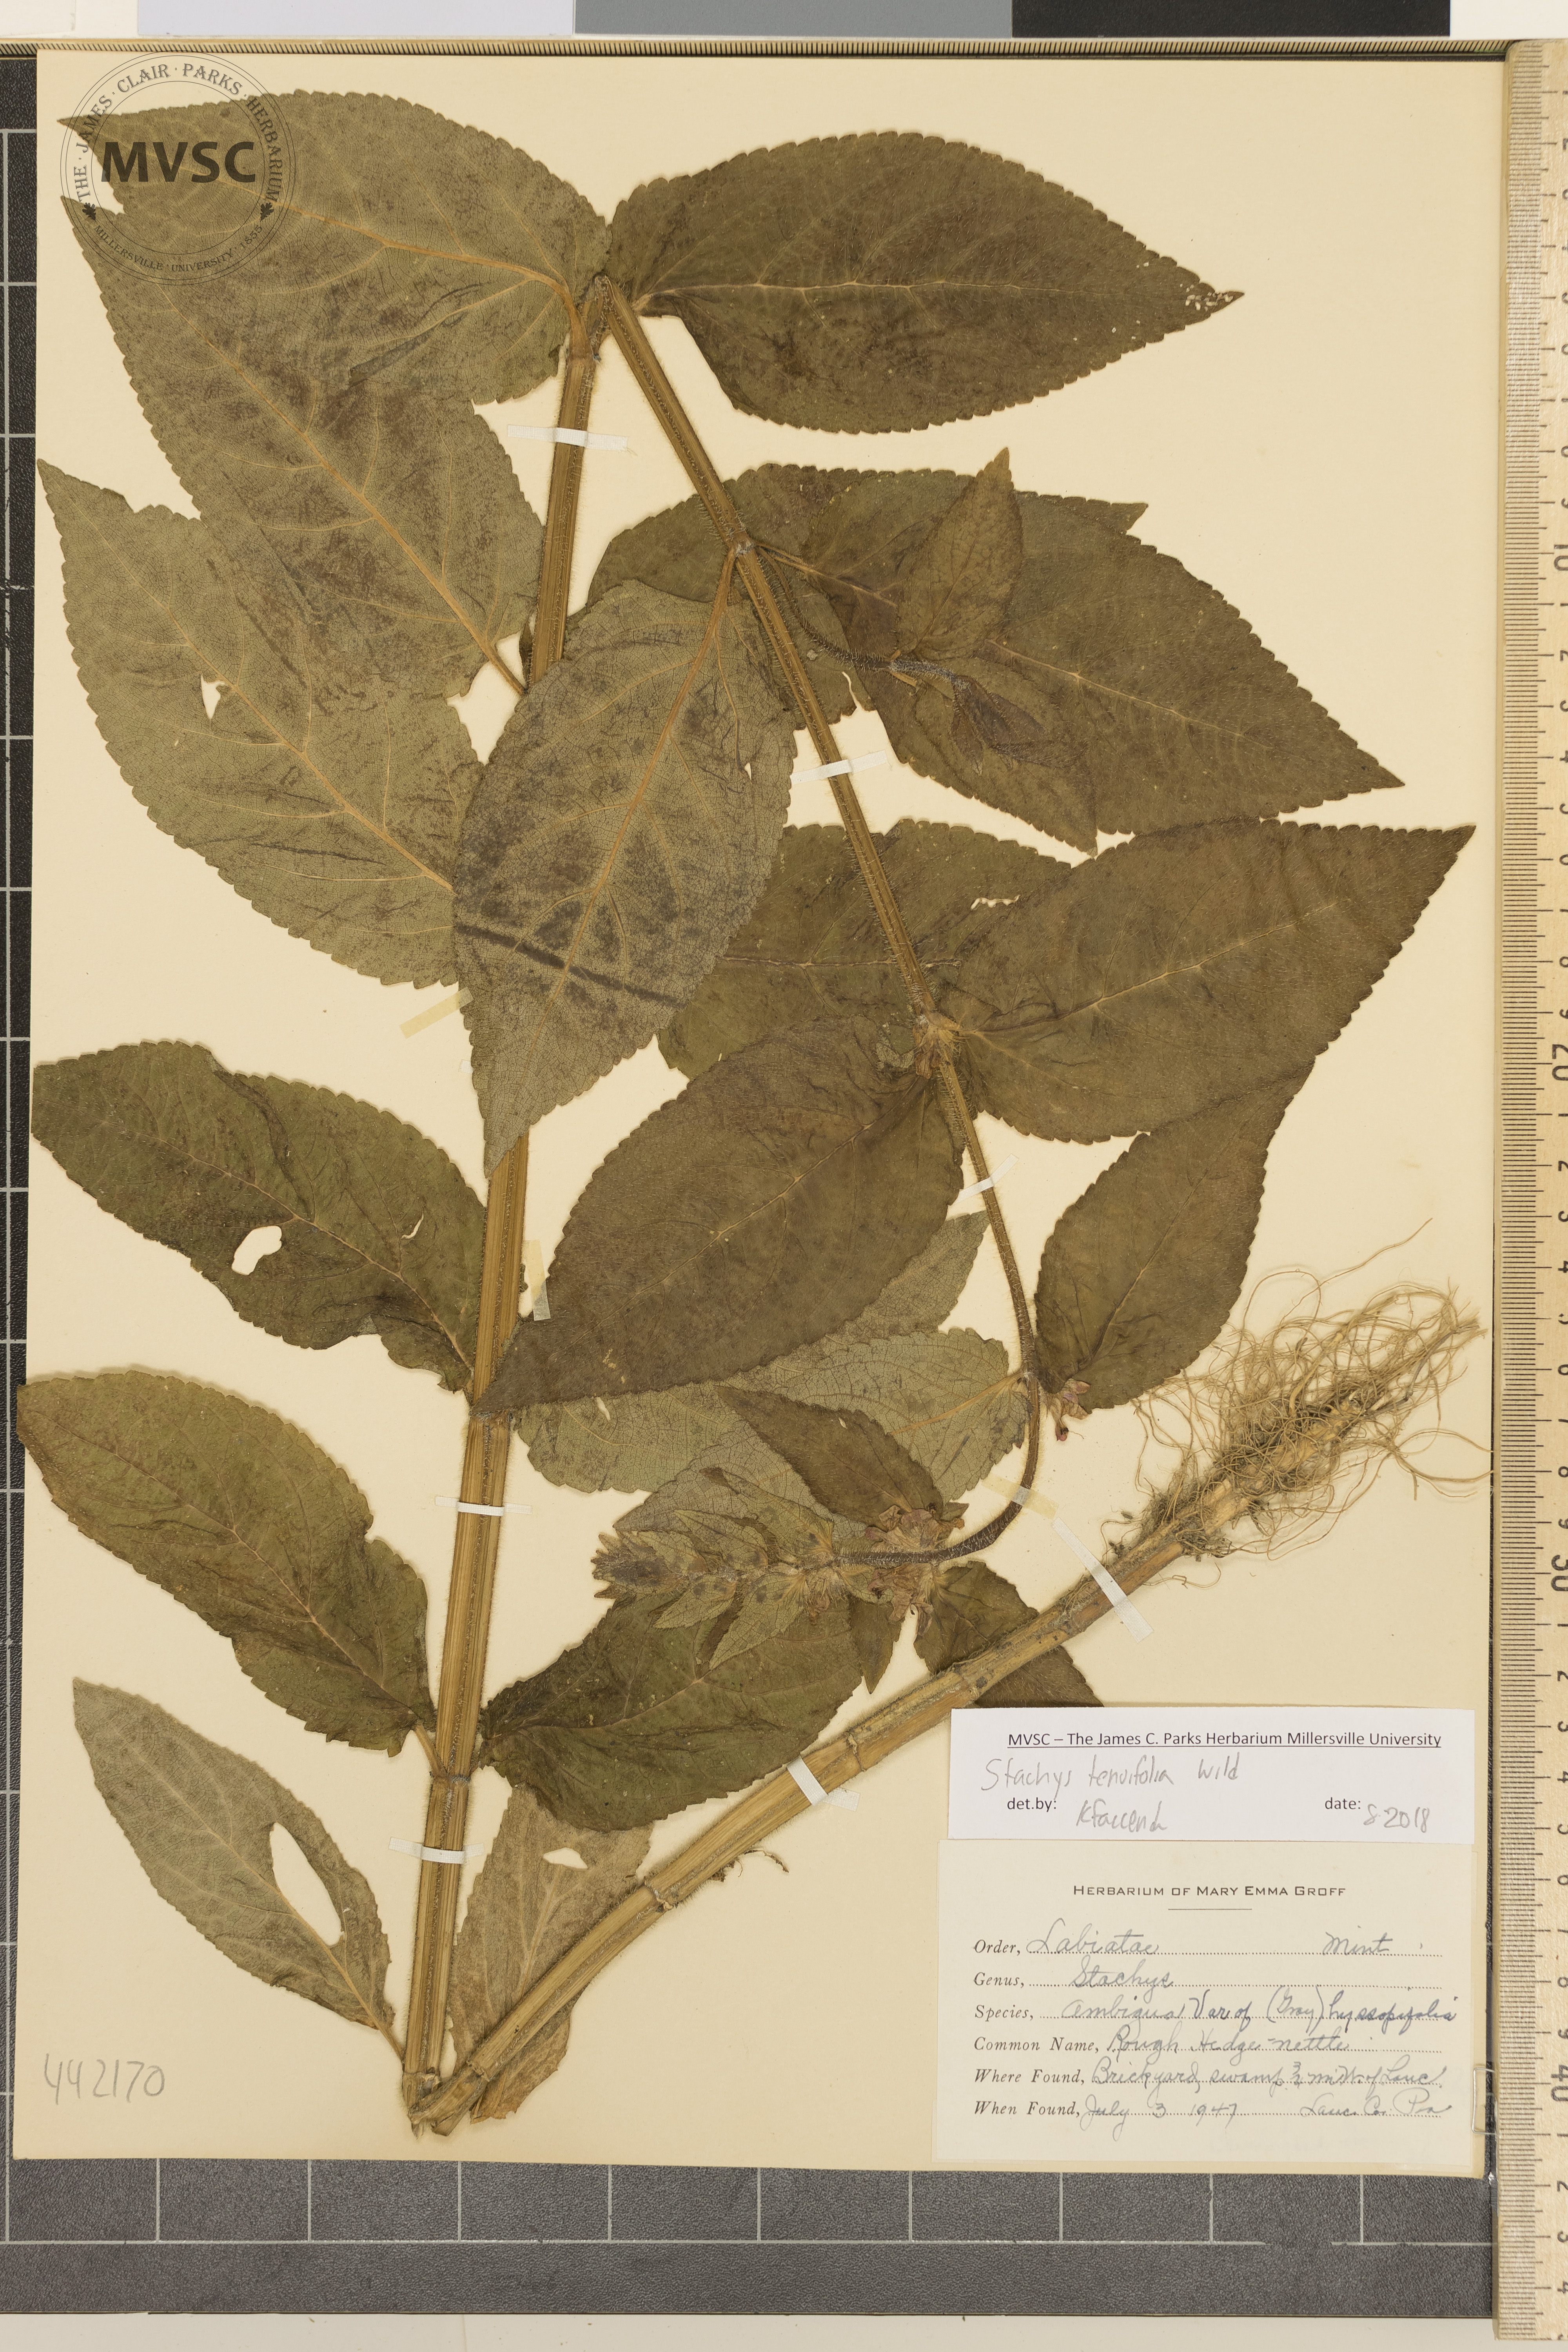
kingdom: Plantae
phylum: Tracheophyta
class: Magnoliopsida
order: Lamiales
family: Lamiaceae
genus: Stachys
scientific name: Stachys tenuifolia
